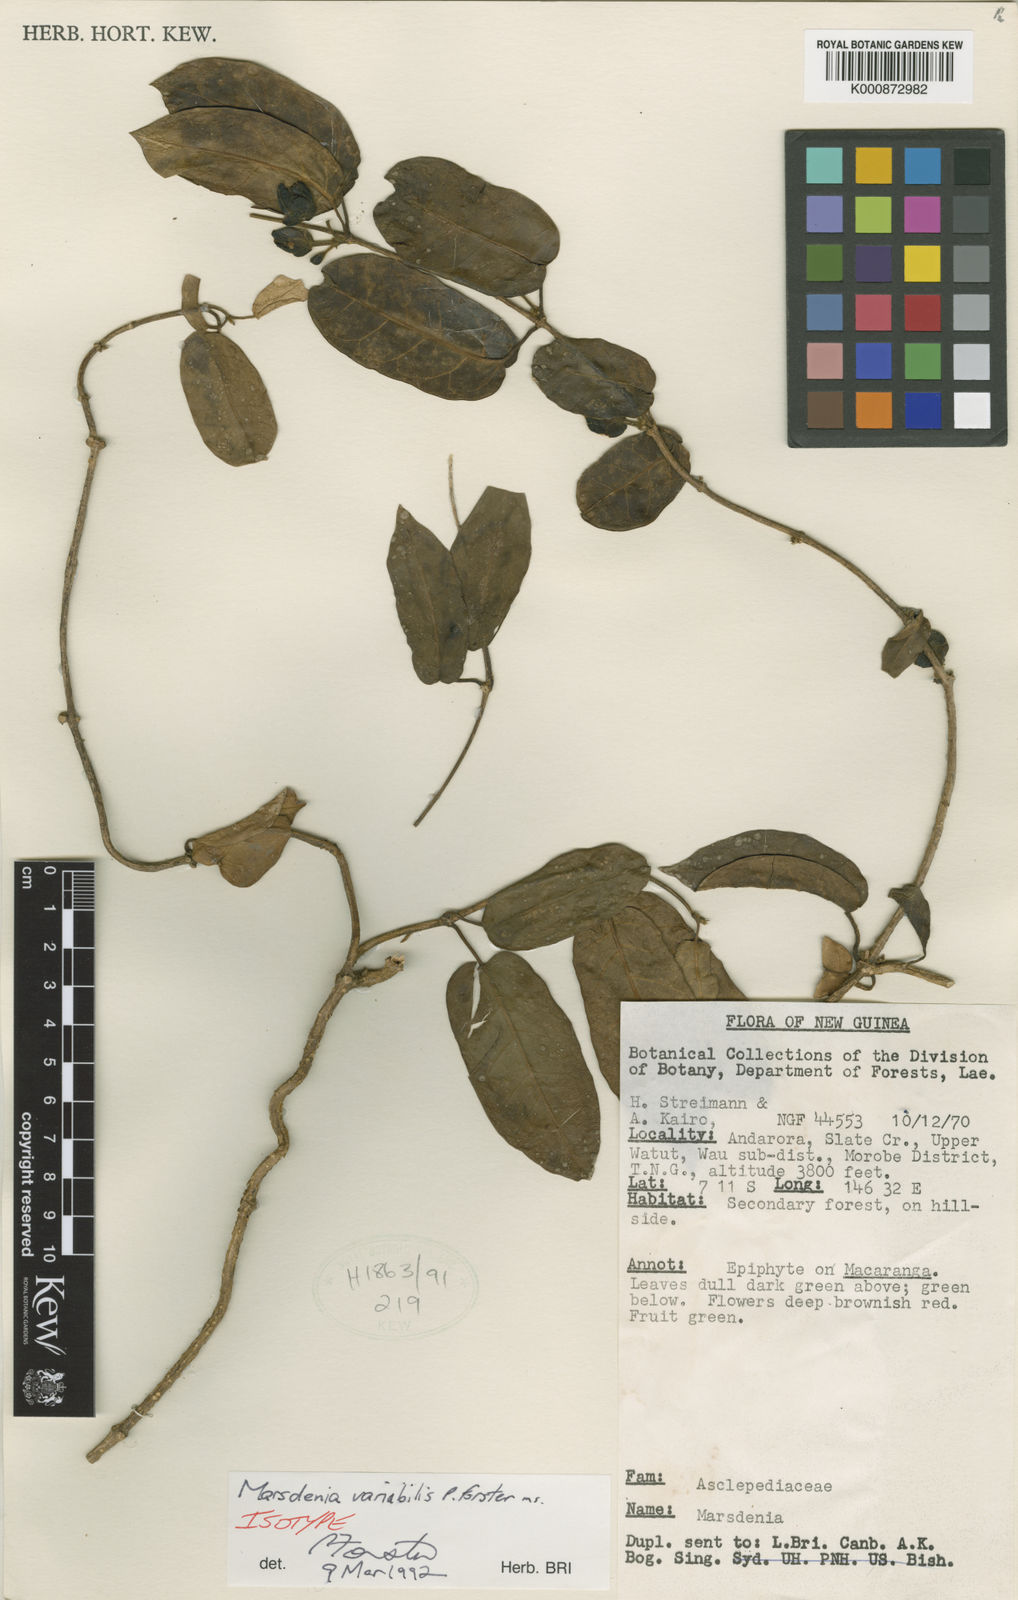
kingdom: Plantae
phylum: Tracheophyta
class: Magnoliopsida
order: Gentianales
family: Apocynaceae
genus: Leichhardtia
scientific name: Leichhardtia variabilis
